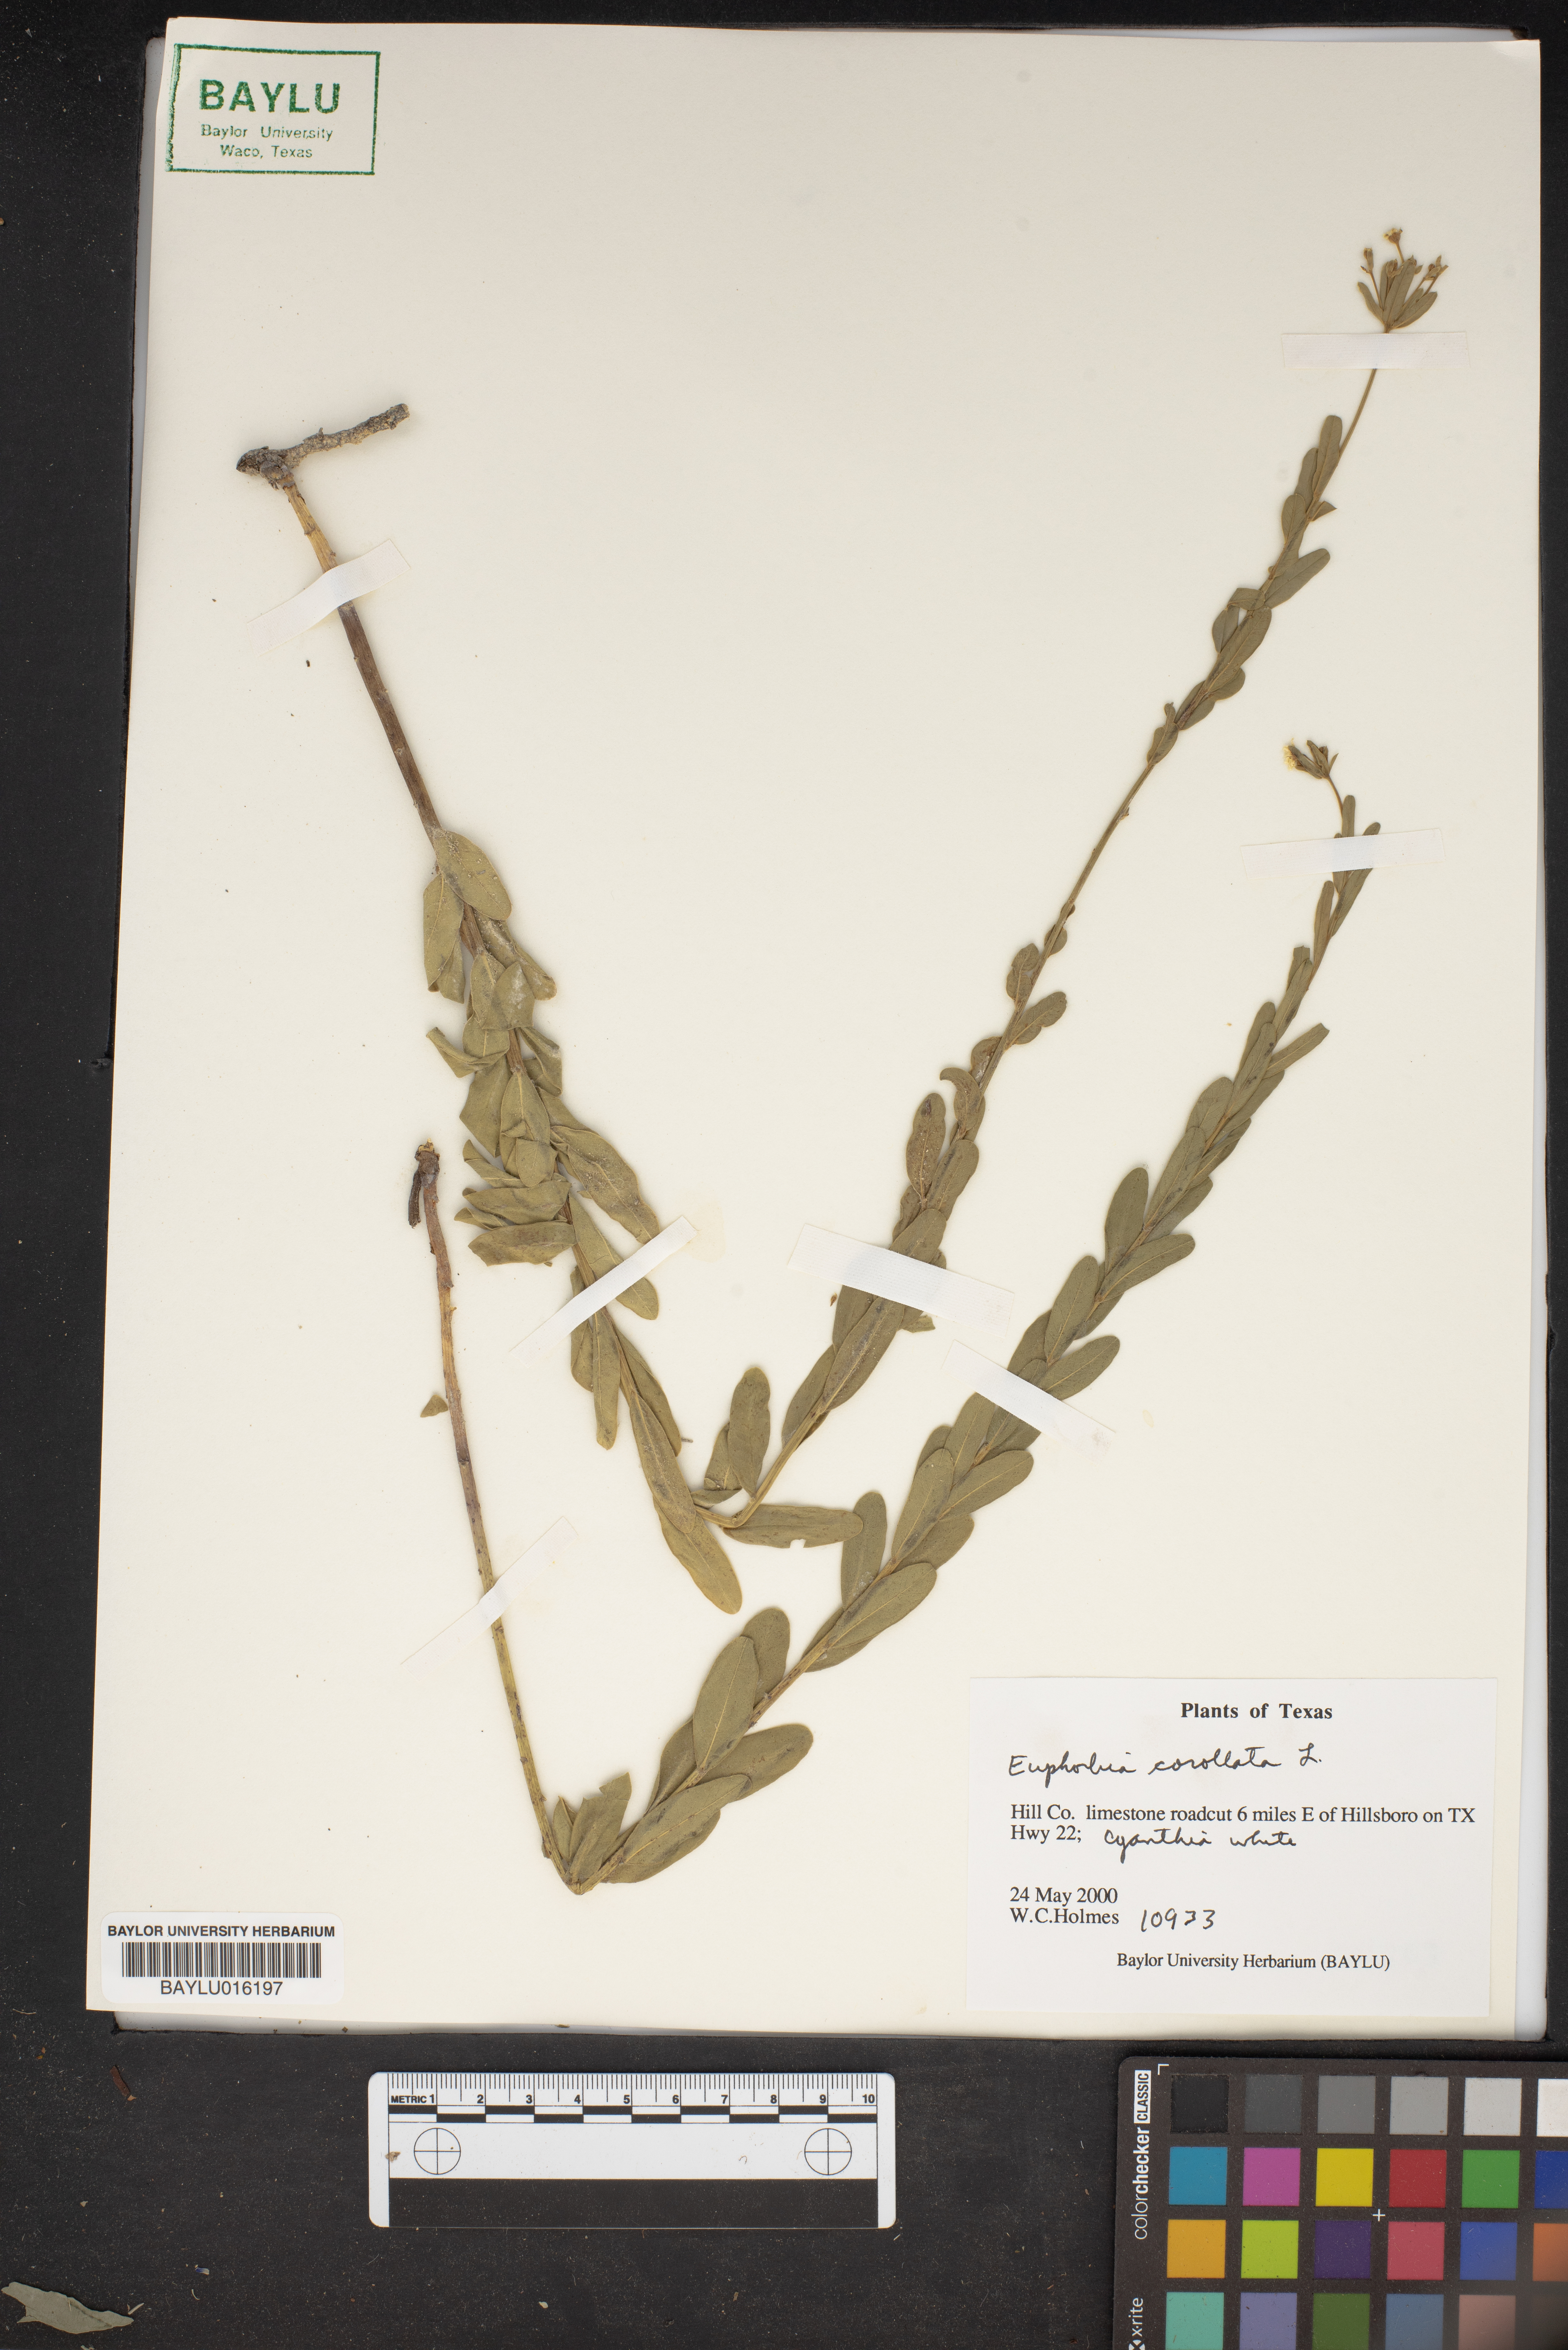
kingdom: Plantae
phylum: Tracheophyta
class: Magnoliopsida
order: Malpighiales
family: Euphorbiaceae
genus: Euphorbia
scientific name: Euphorbia corollata
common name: Flowering spurge
